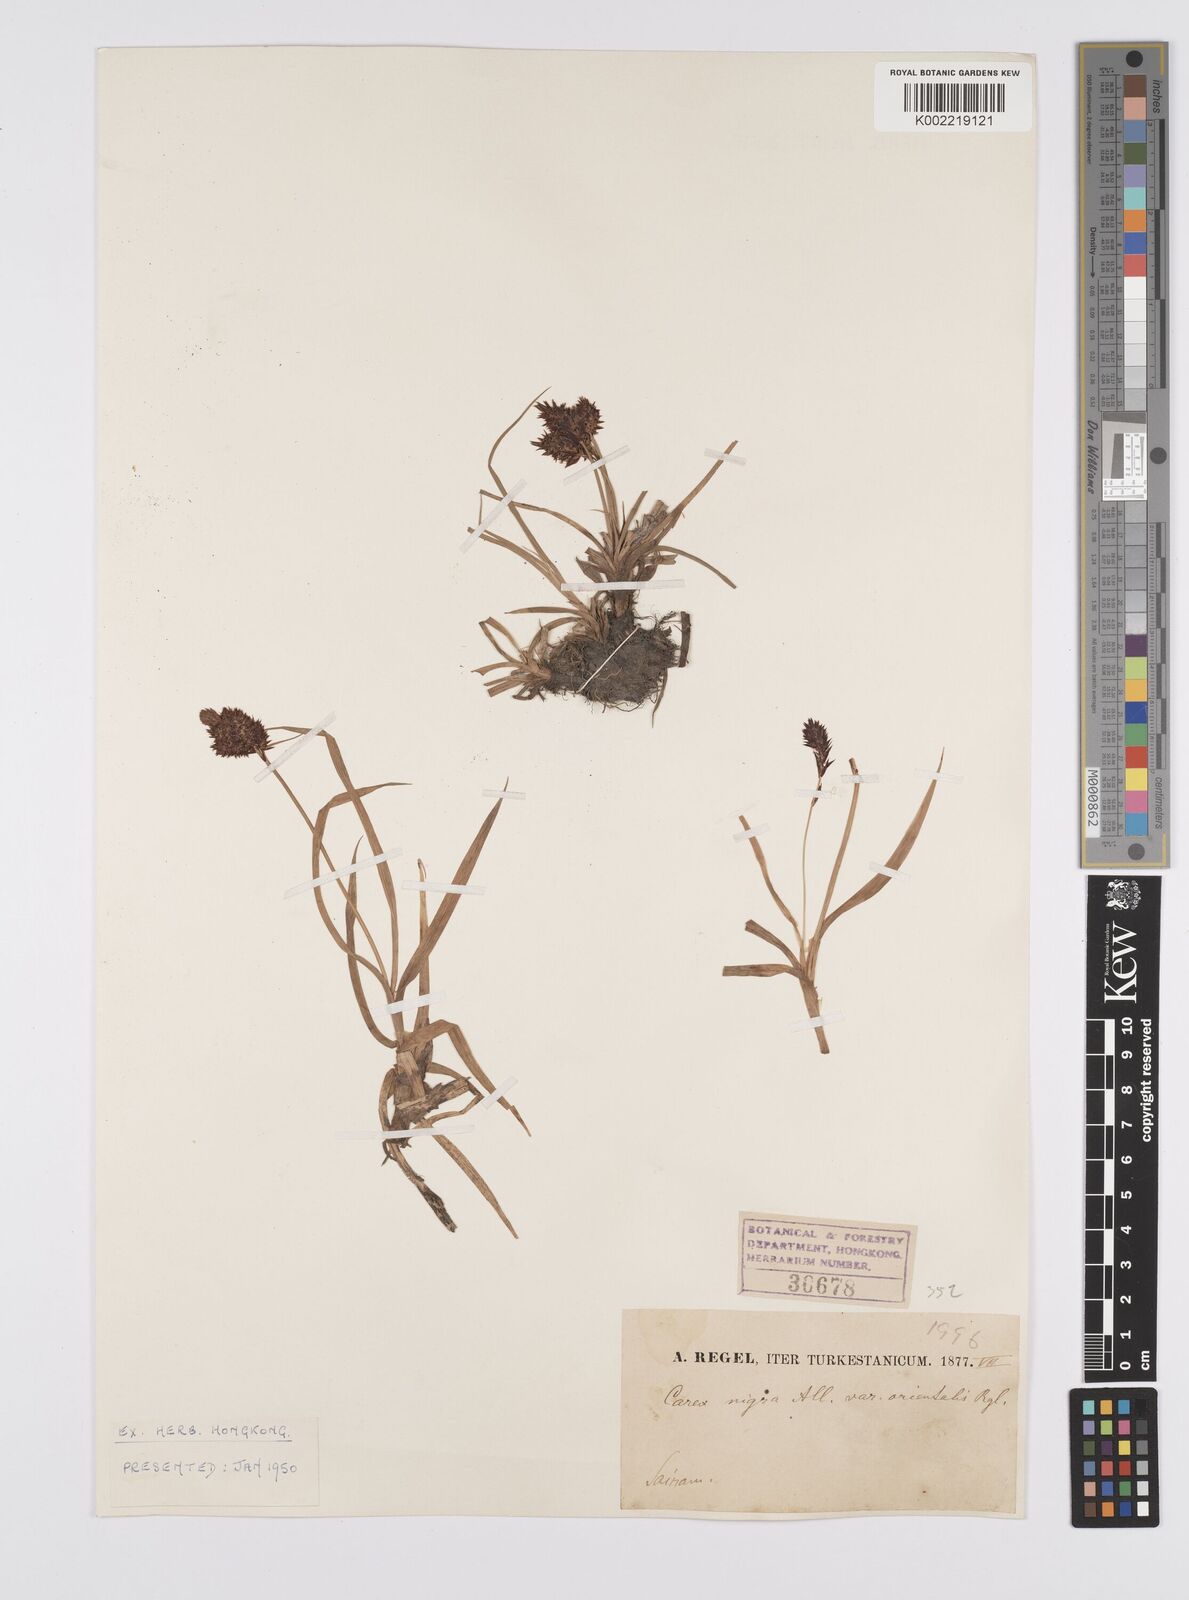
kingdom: Plantae
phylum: Tracheophyta
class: Liliopsida
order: Poales
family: Cyperaceae
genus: Carex
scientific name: Carex melanantha
